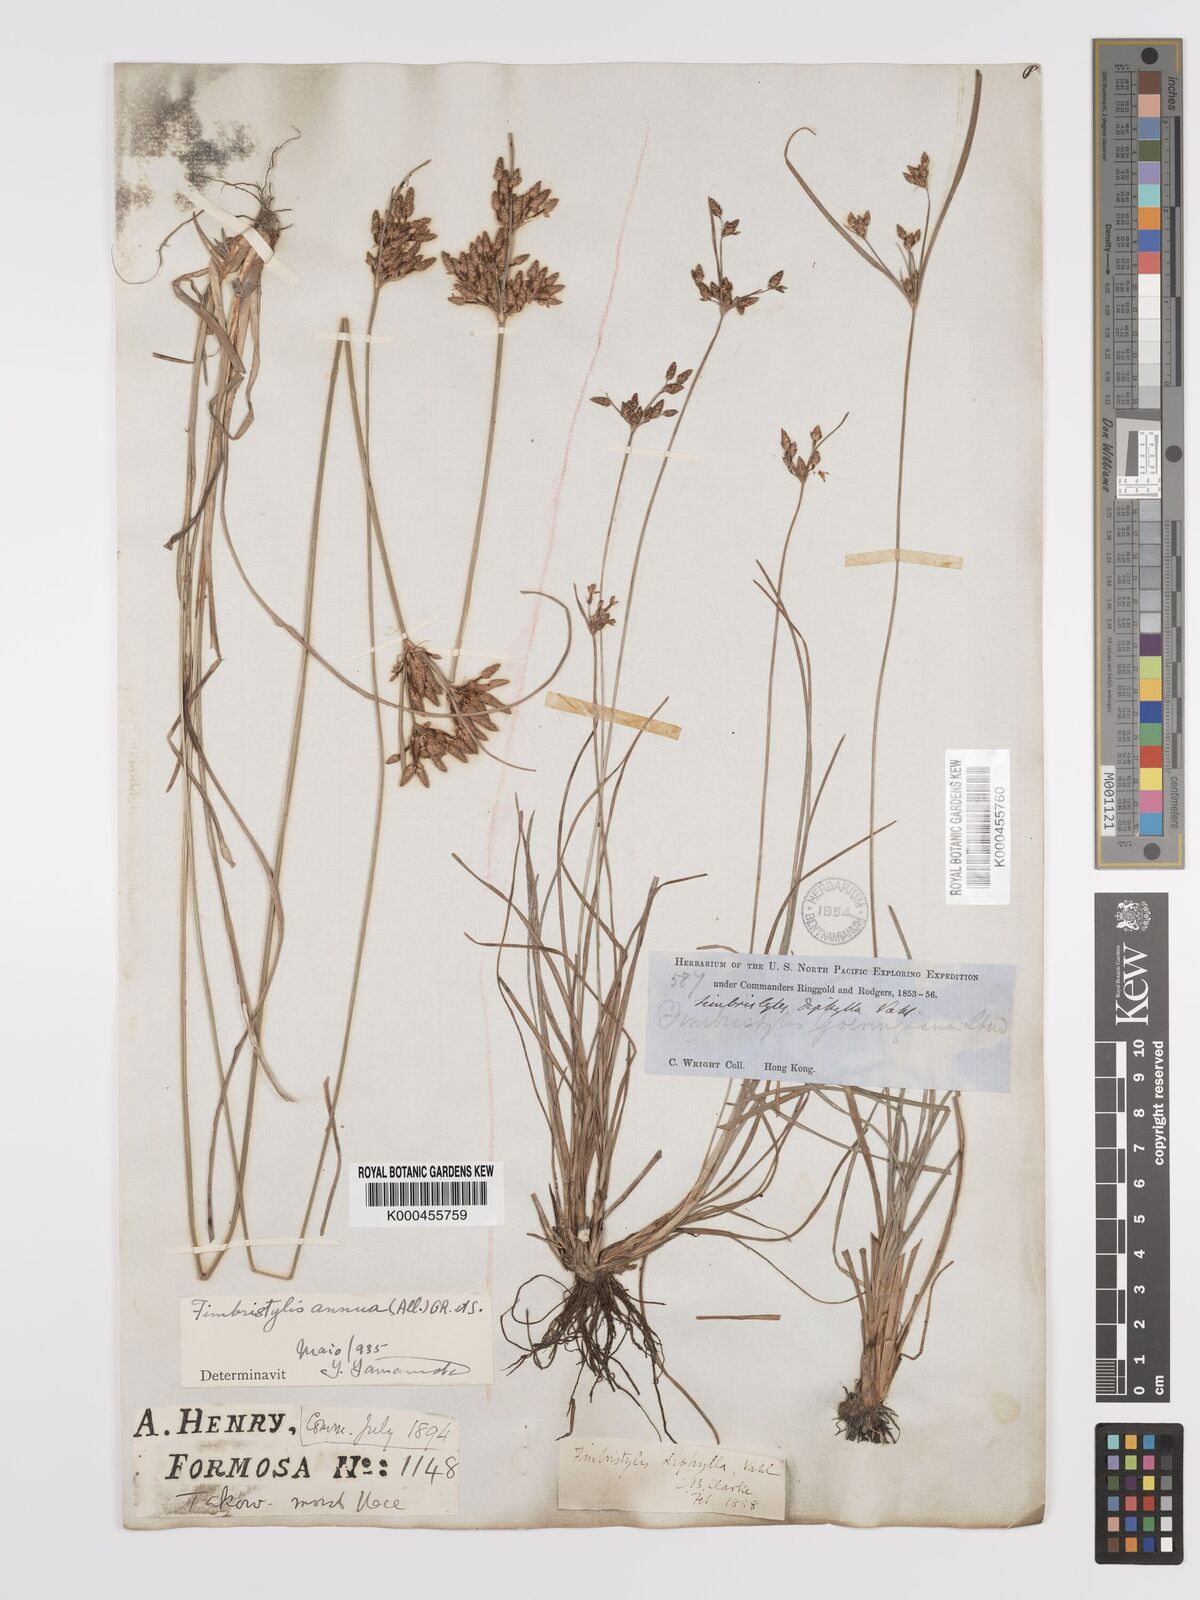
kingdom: Plantae
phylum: Tracheophyta
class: Liliopsida
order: Poales
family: Cyperaceae
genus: Fimbristylis
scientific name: Fimbristylis dichotoma
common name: Forked fimbry
